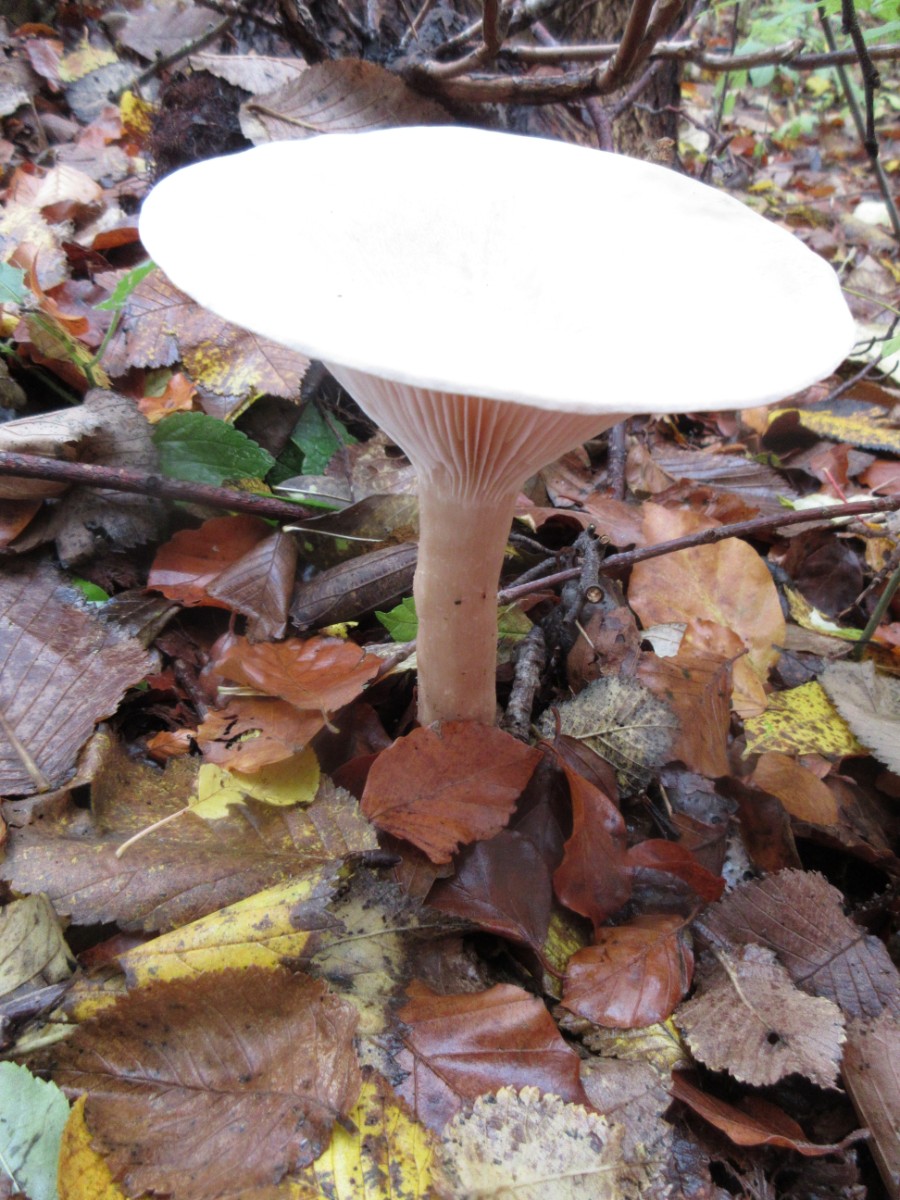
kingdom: Fungi
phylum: Basidiomycota
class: Agaricomycetes
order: Agaricales
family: Tricholomataceae
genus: Infundibulicybe
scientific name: Infundibulicybe geotropa
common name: stor tragthat
